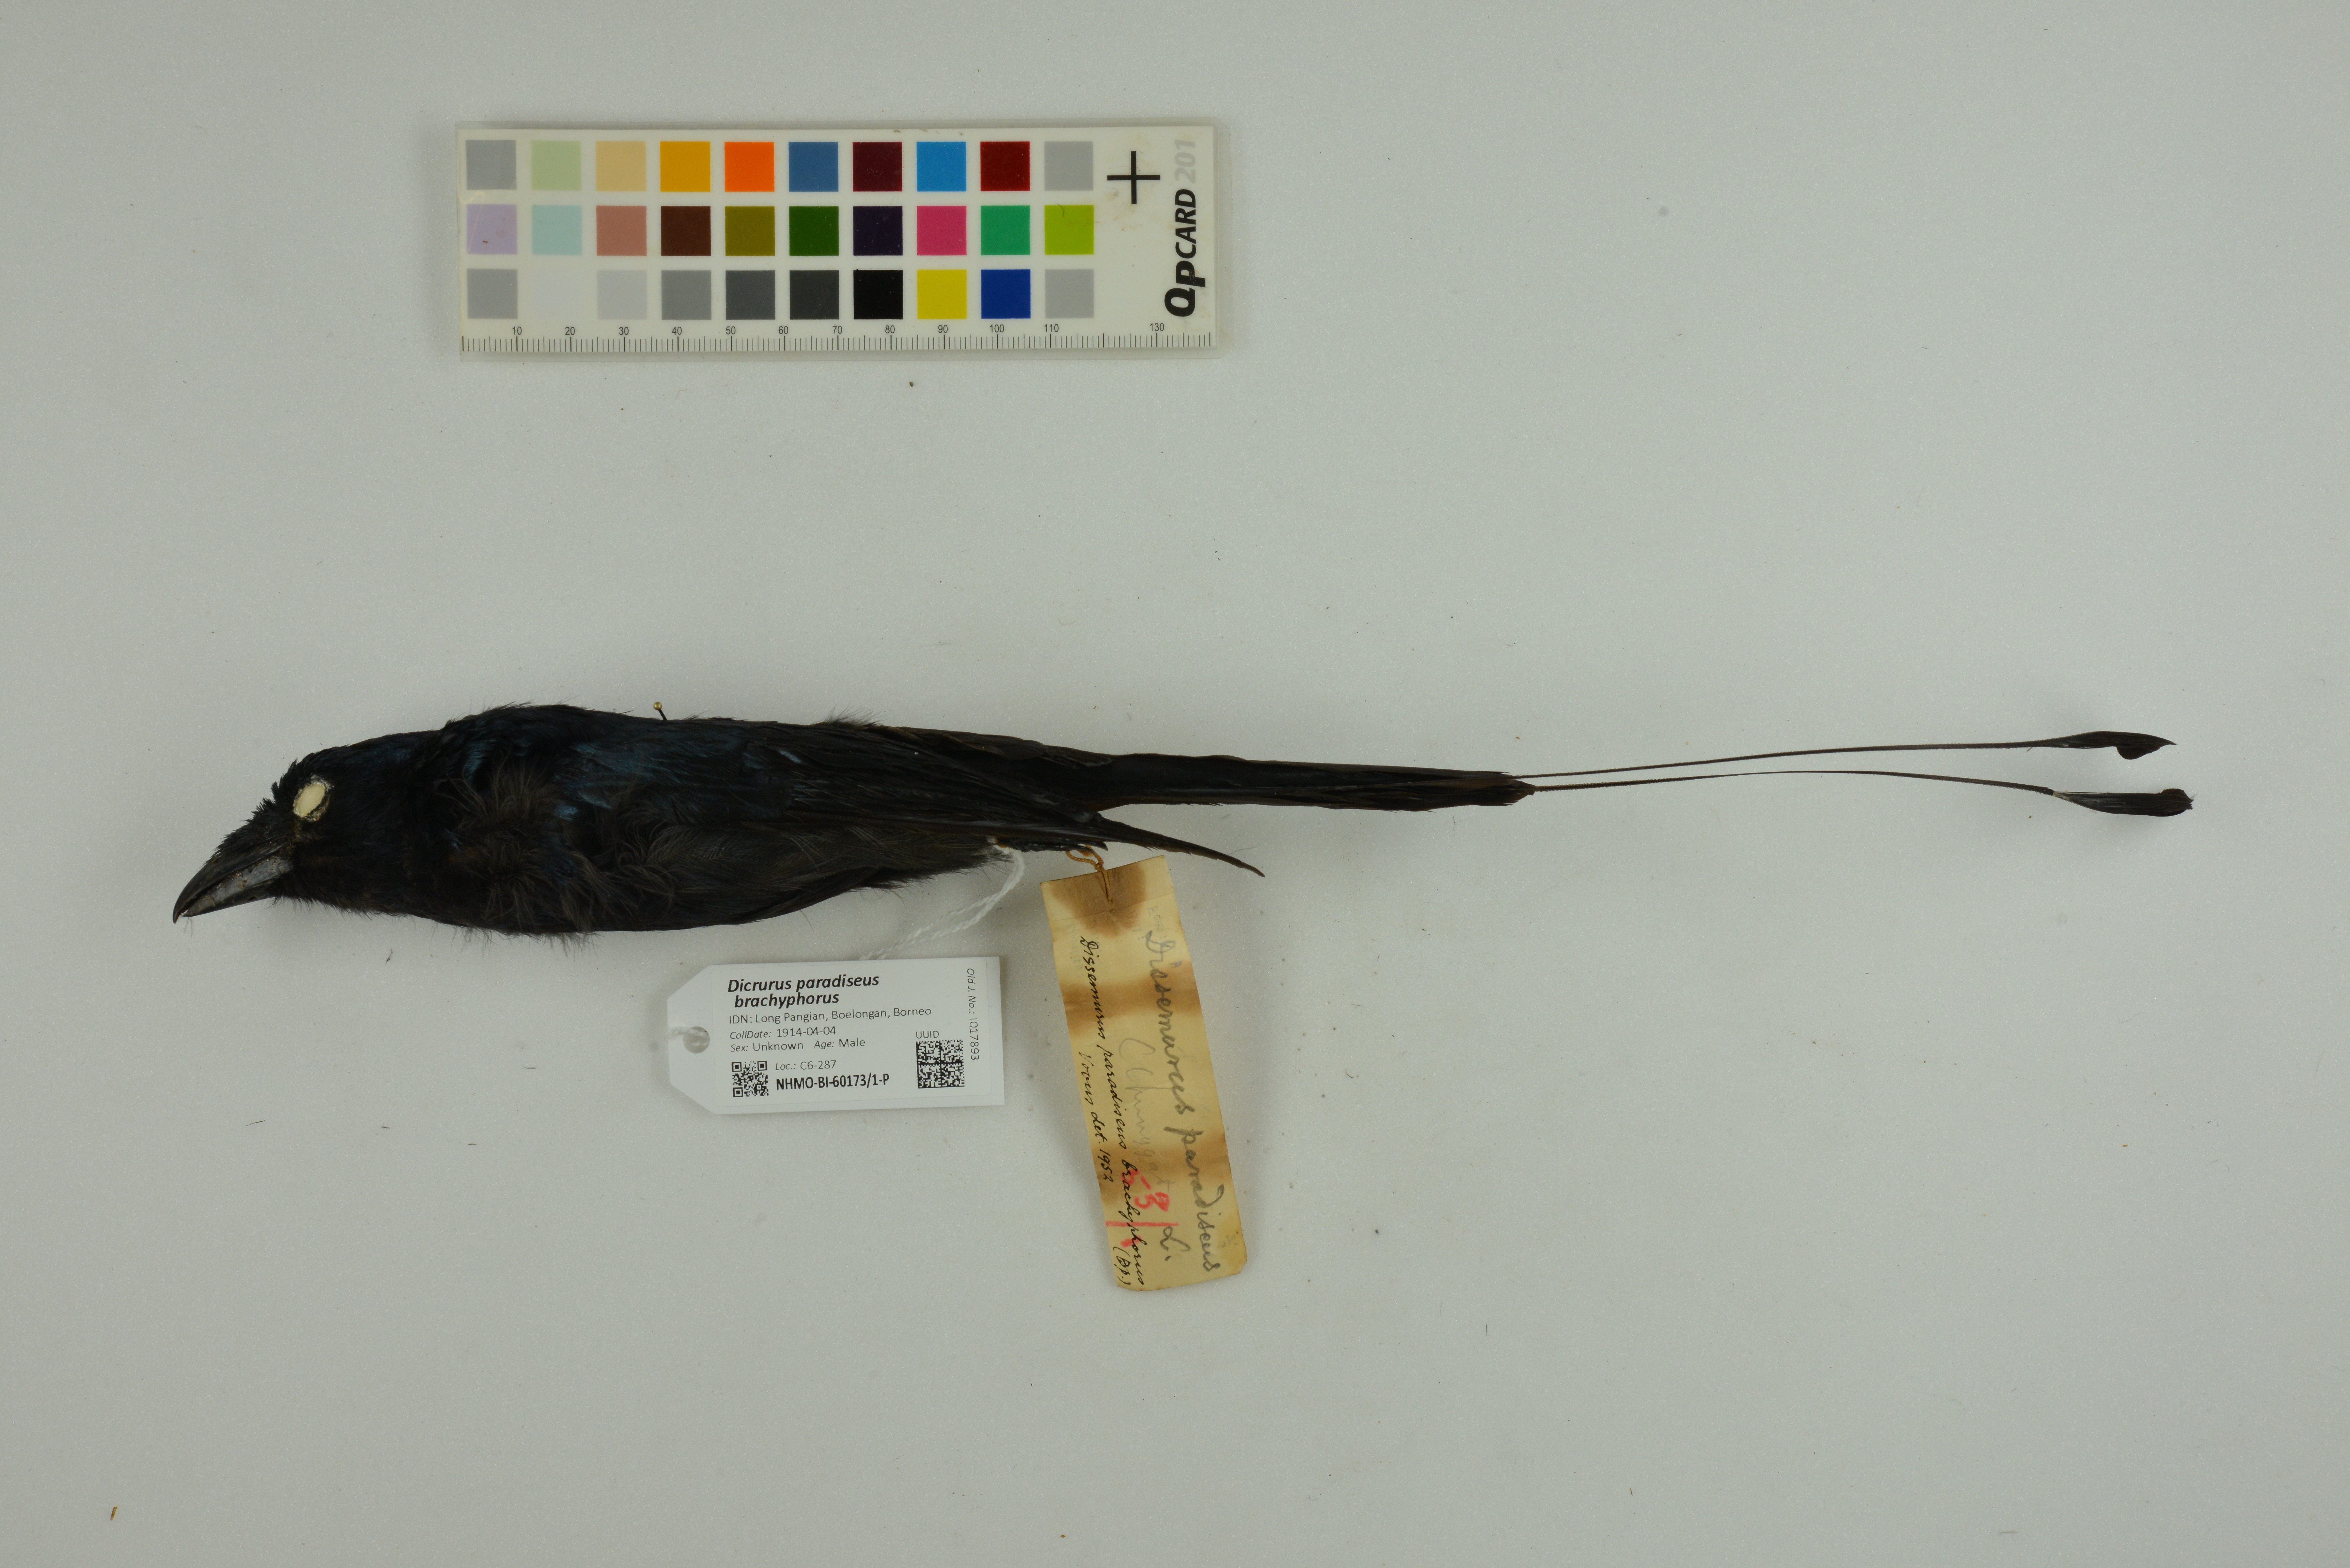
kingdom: Animalia
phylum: Chordata
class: Aves
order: Passeriformes
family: Dicruridae
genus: Dicrurus
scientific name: Dicrurus paradiseus
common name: Greater racket-tailed drongo
